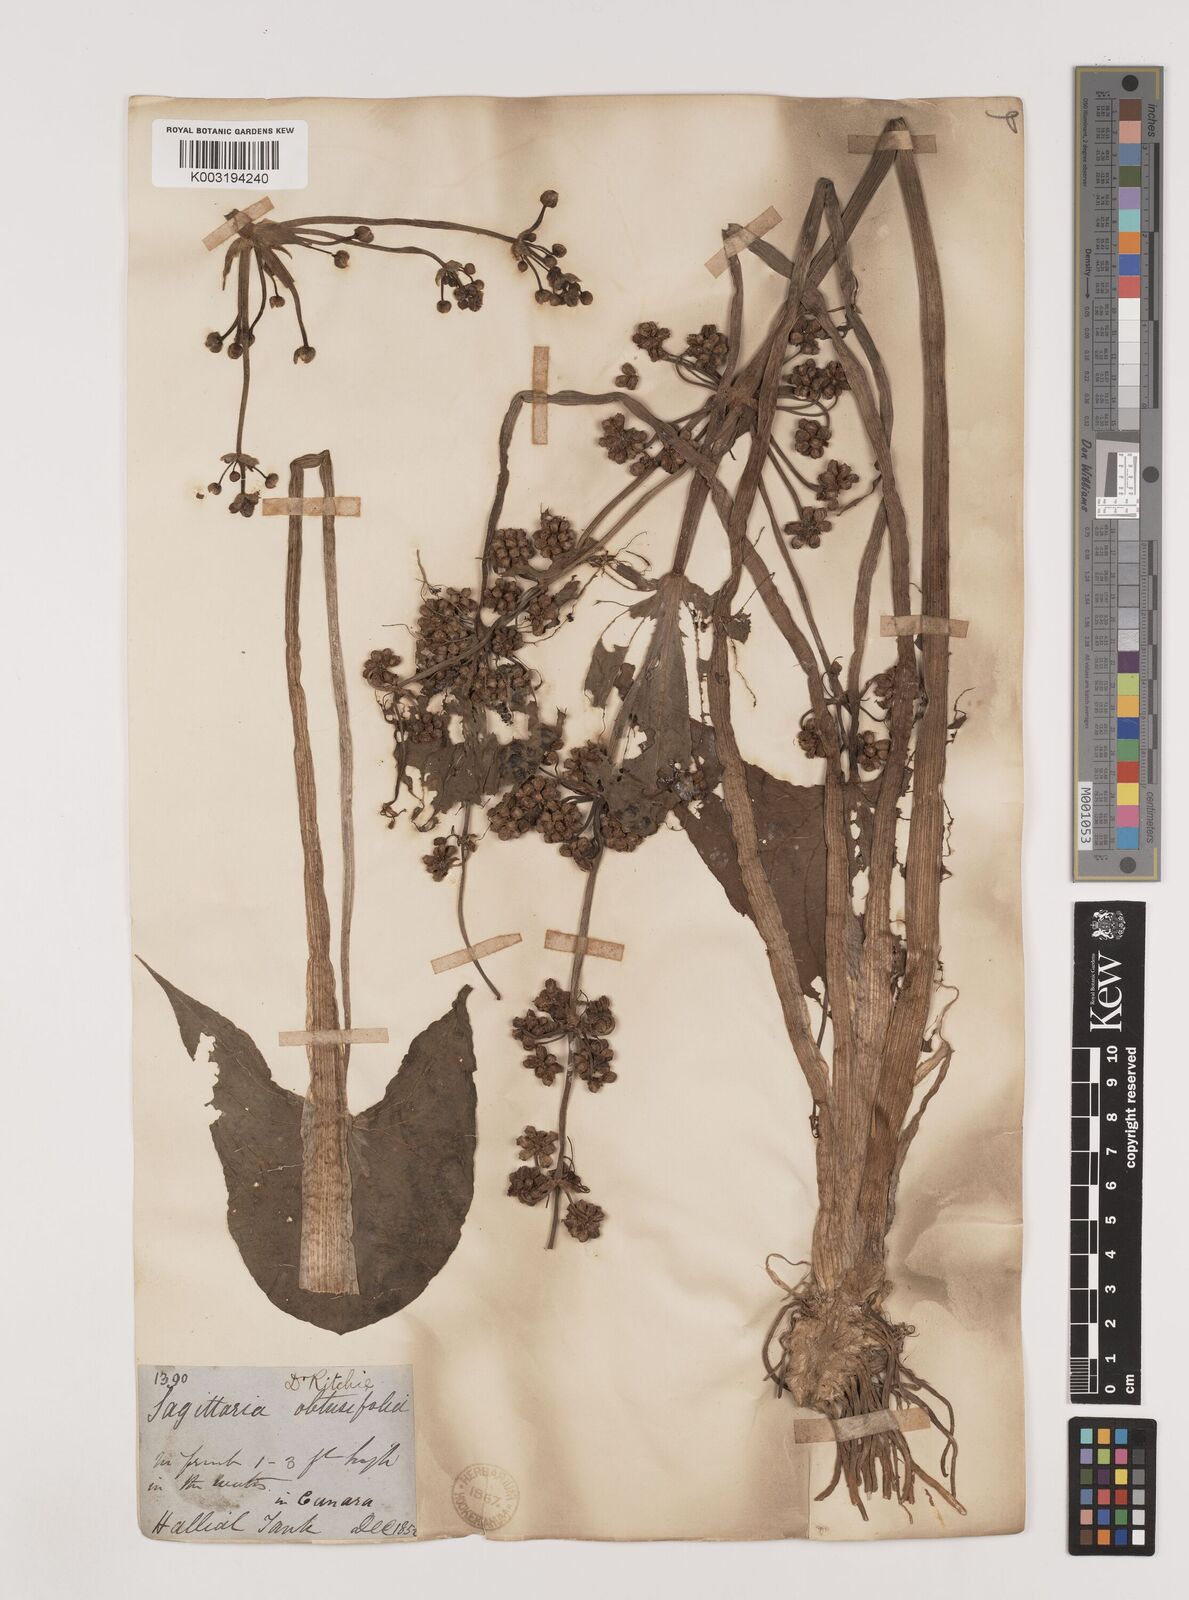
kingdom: Plantae
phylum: Tracheophyta
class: Liliopsida
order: Alismatales
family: Alismataceae
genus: Limnophyton
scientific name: Limnophyton obtusifolium
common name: Arrow head
